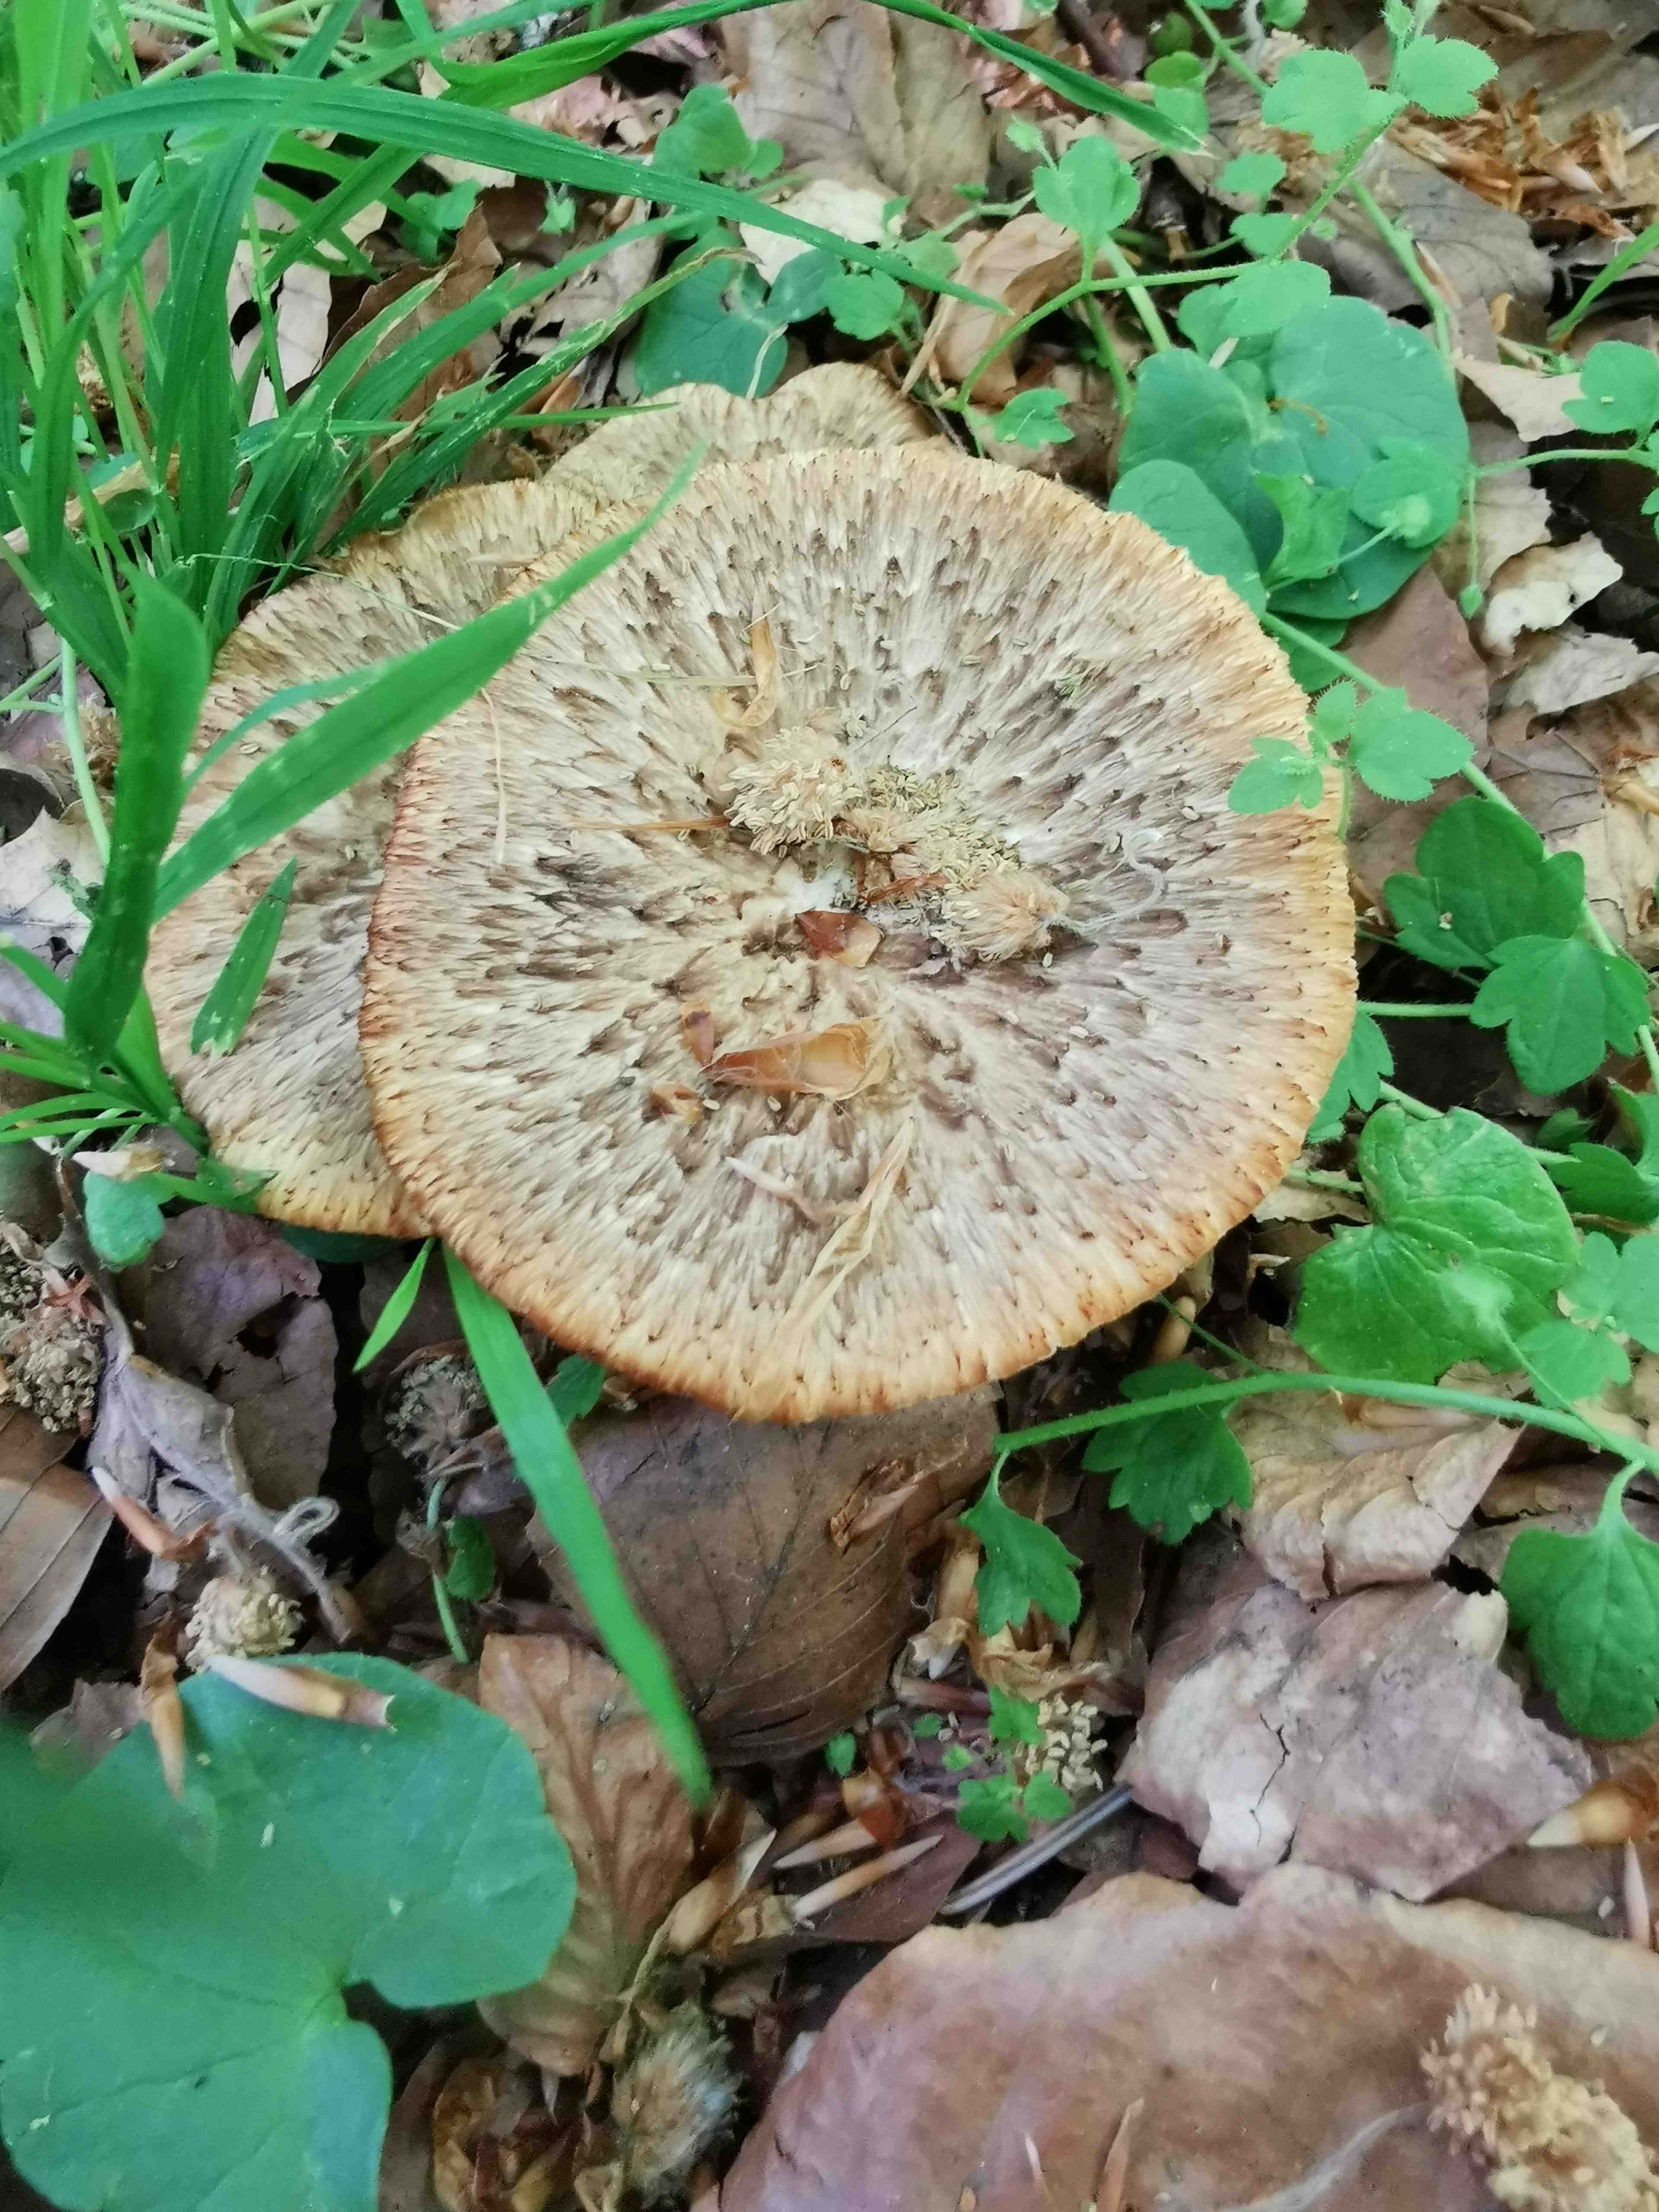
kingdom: Fungi
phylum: Basidiomycota
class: Agaricomycetes
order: Polyporales
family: Polyporaceae
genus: Polyporus
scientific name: Polyporus tuberaster
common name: knoldet stilkporesvamp
